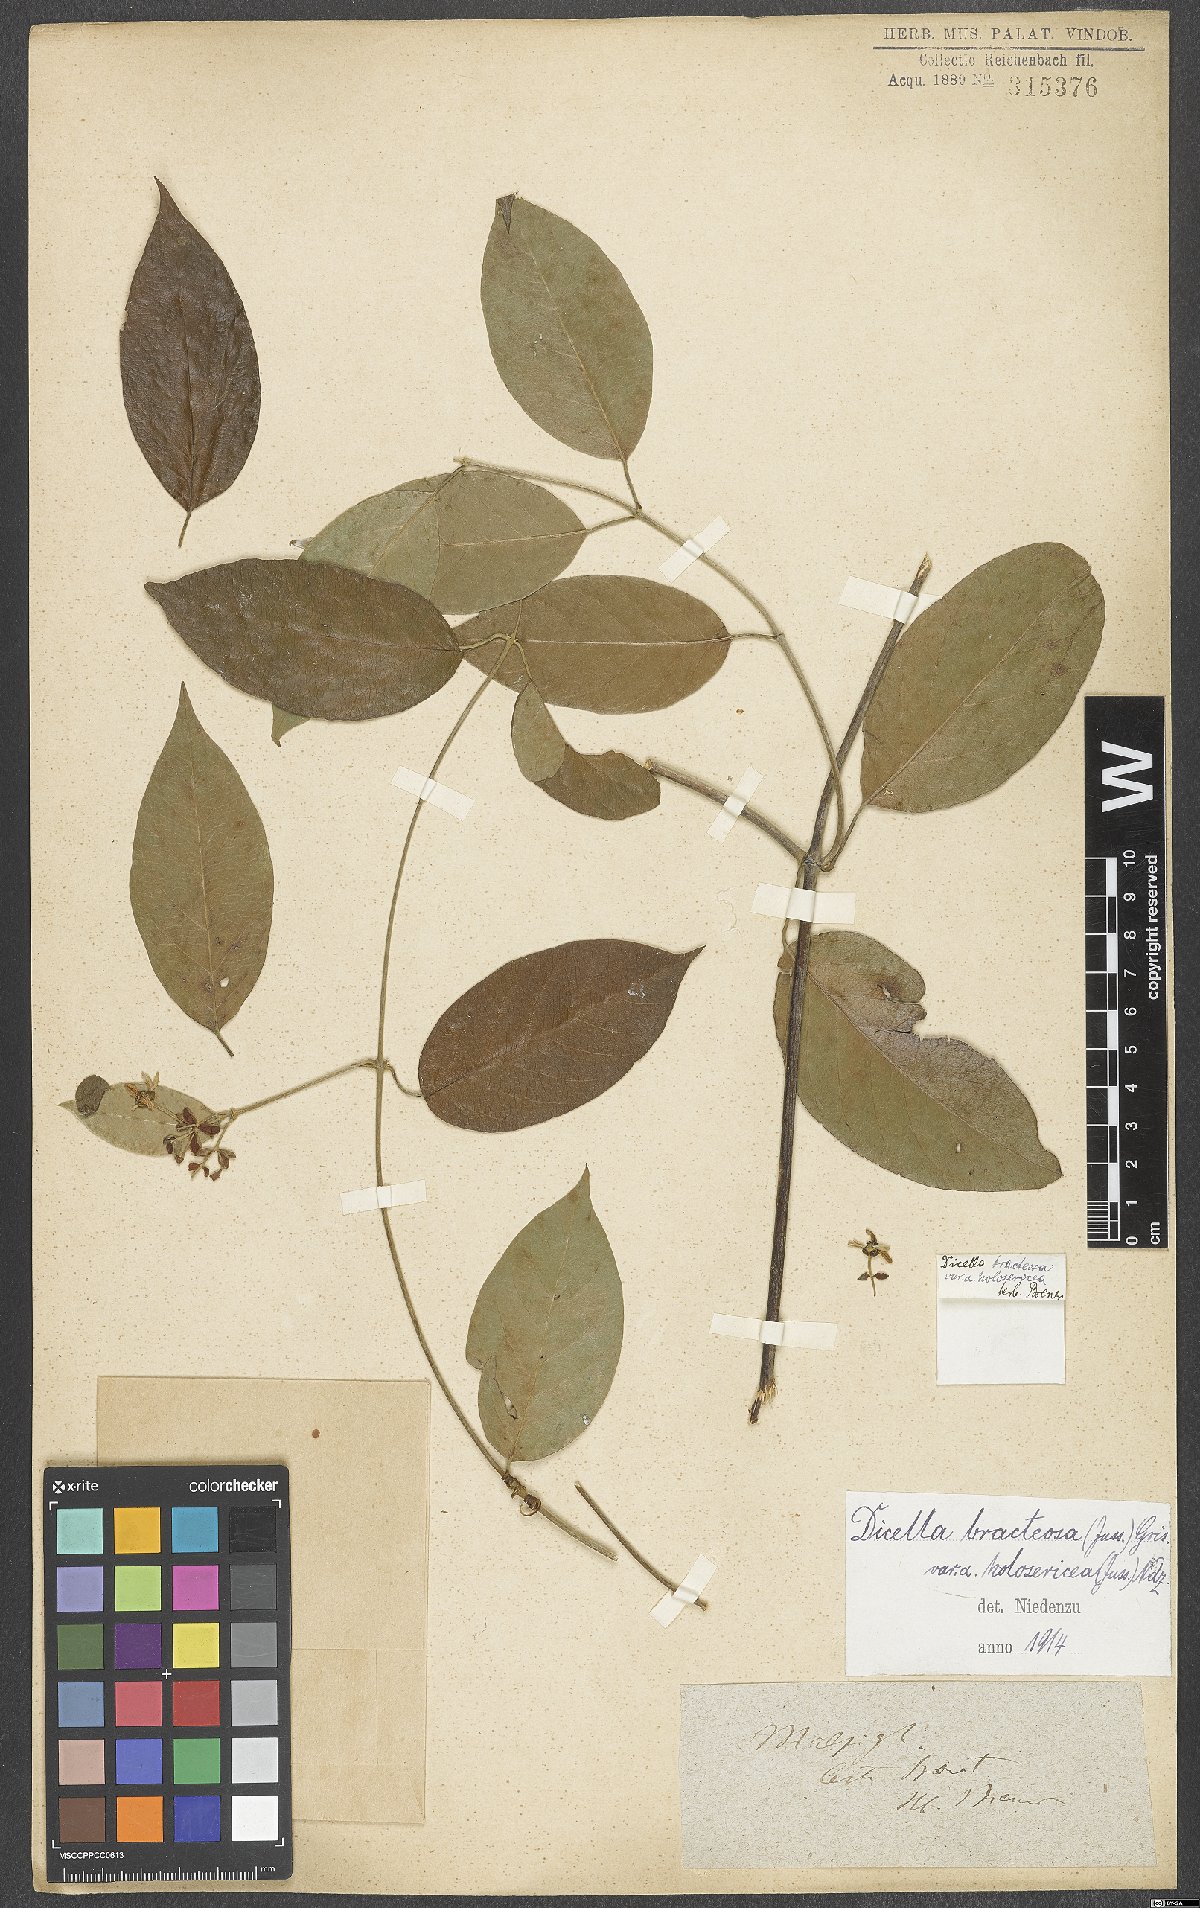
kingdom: Plantae
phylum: Tracheophyta
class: Magnoliopsida
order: Malpighiales
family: Malpighiaceae
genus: Dicella
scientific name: Dicella bracteosa
